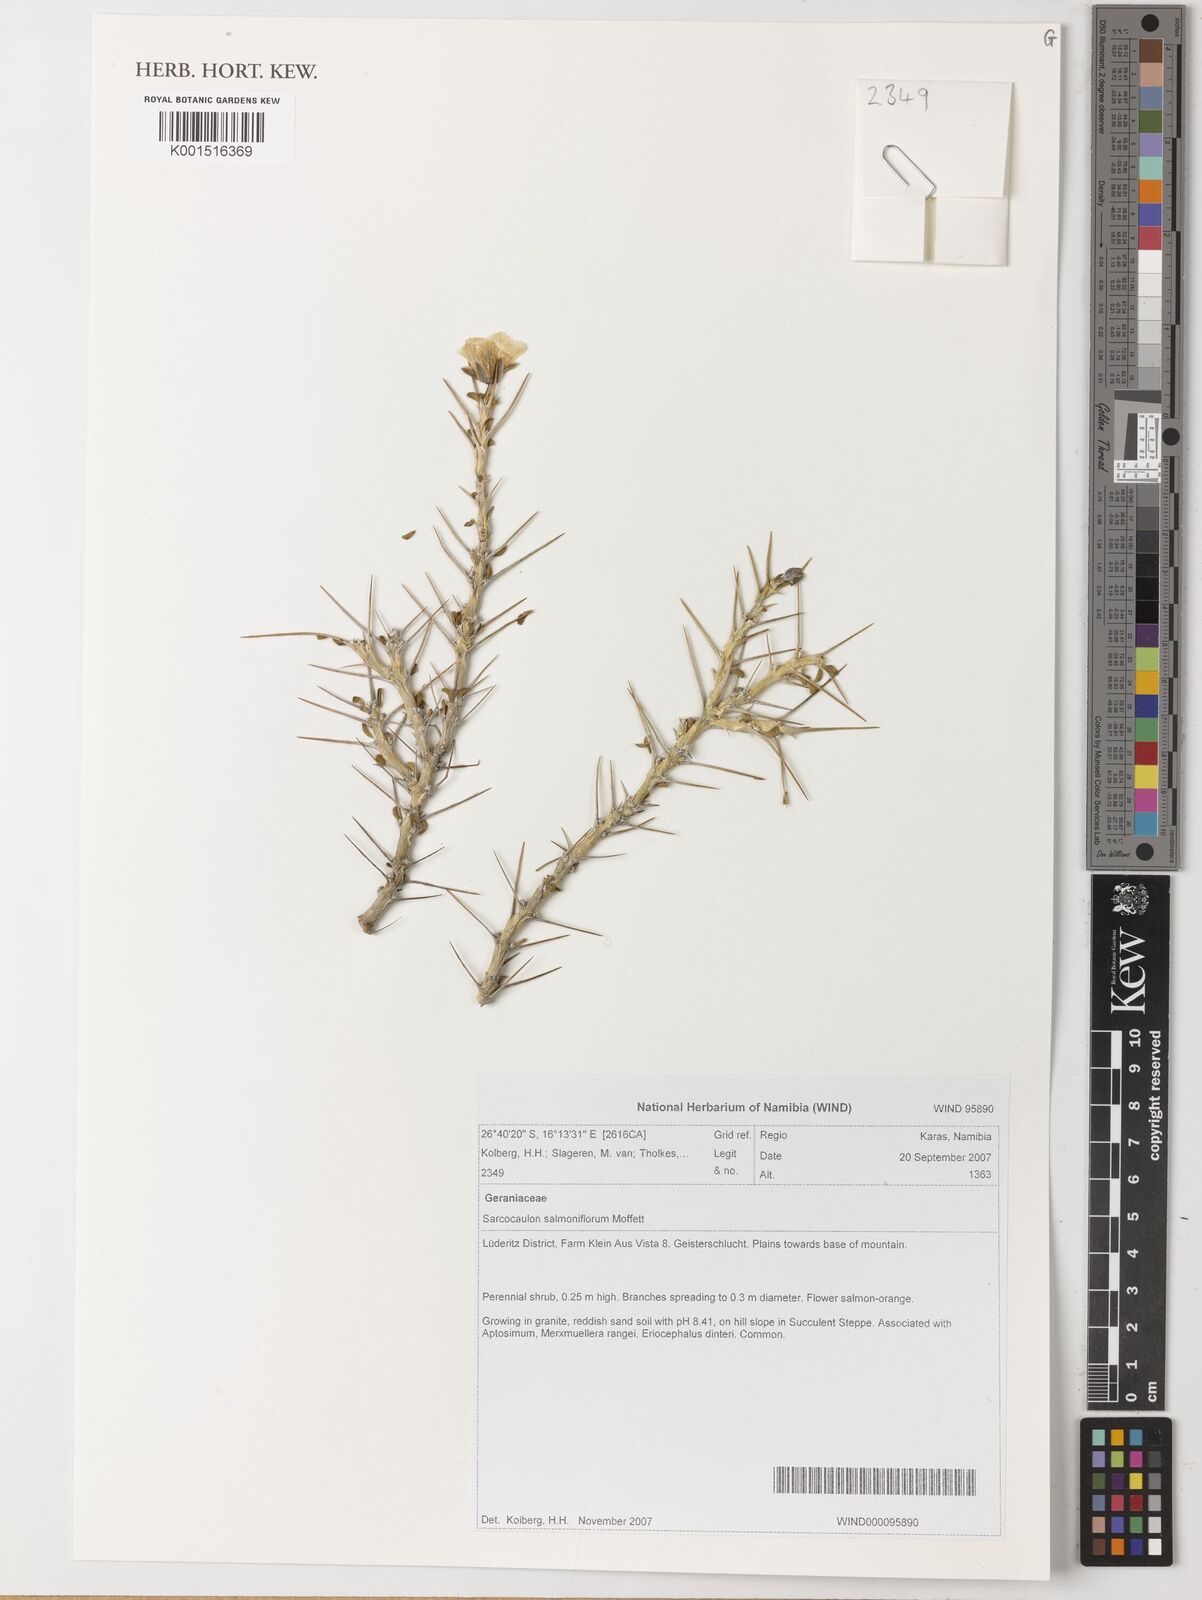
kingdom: Plantae
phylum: Tracheophyta
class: Magnoliopsida
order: Geraniales
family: Geraniaceae
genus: Monsonia
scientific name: Monsonia salmoniflora
